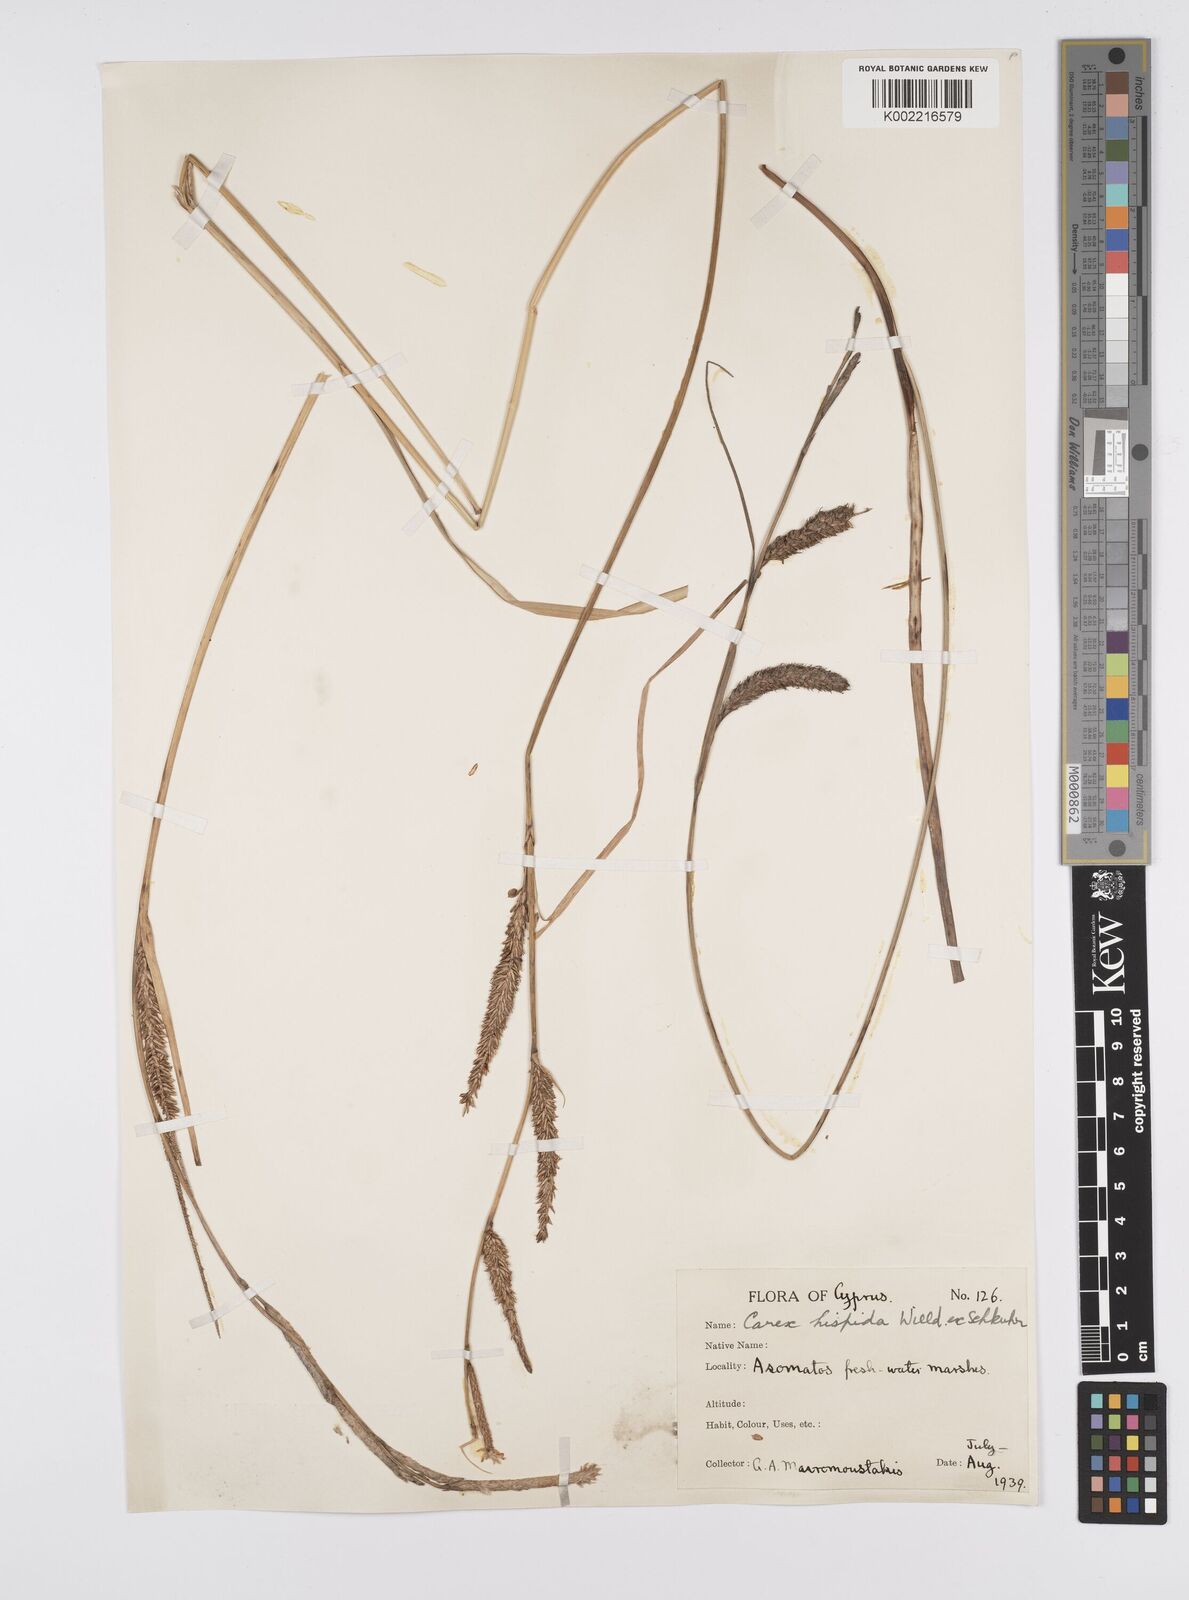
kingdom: Plantae
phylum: Tracheophyta
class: Liliopsida
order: Poales
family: Cyperaceae
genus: Carex
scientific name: Carex hispida
